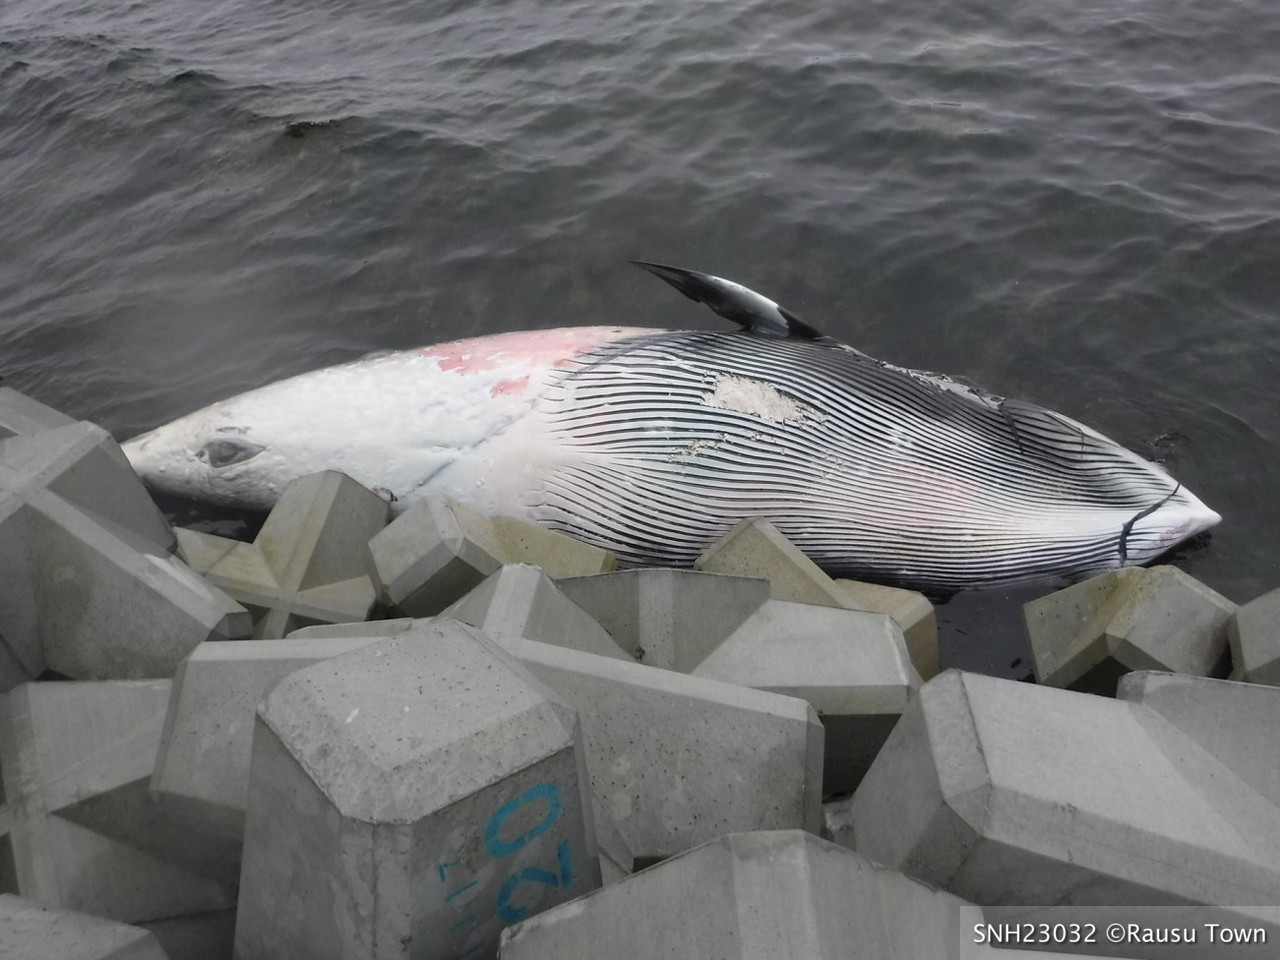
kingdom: Animalia
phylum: Chordata
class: Mammalia
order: Cetacea
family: Balaenopteridae
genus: Balaenoptera
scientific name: Balaenoptera acutorostrata
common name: Minke whale
